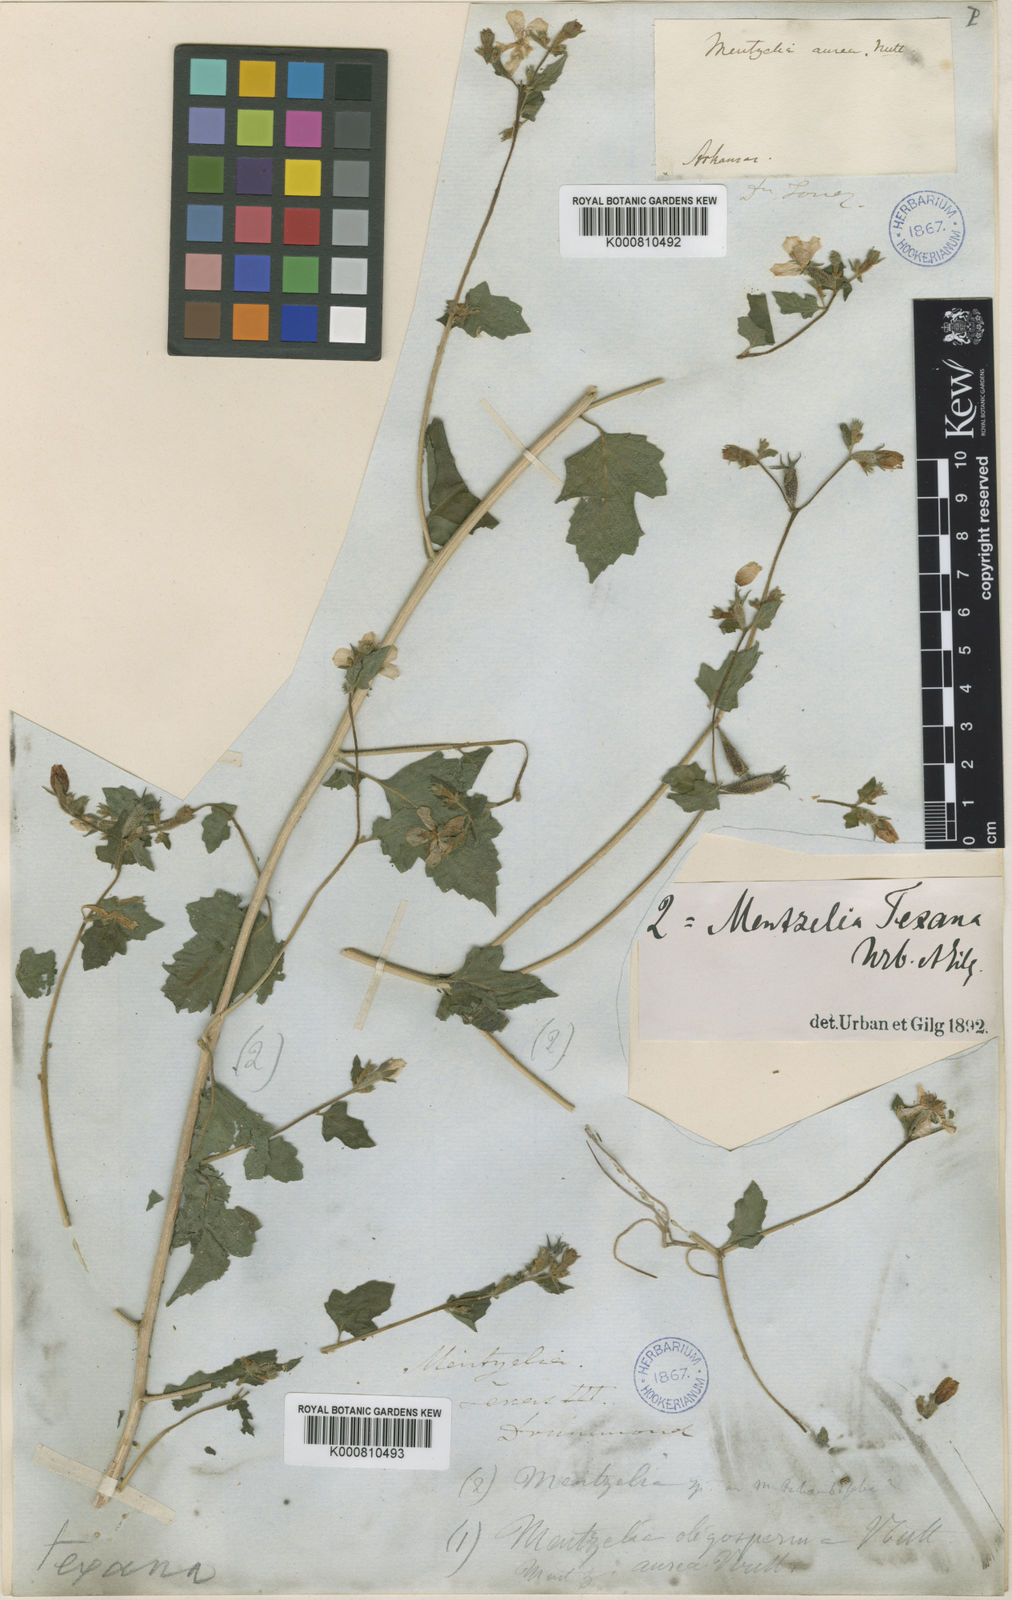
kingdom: Plantae
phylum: Tracheophyta
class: Magnoliopsida
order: Cornales
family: Loasaceae
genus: Mentzelia
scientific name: Mentzelia texana
